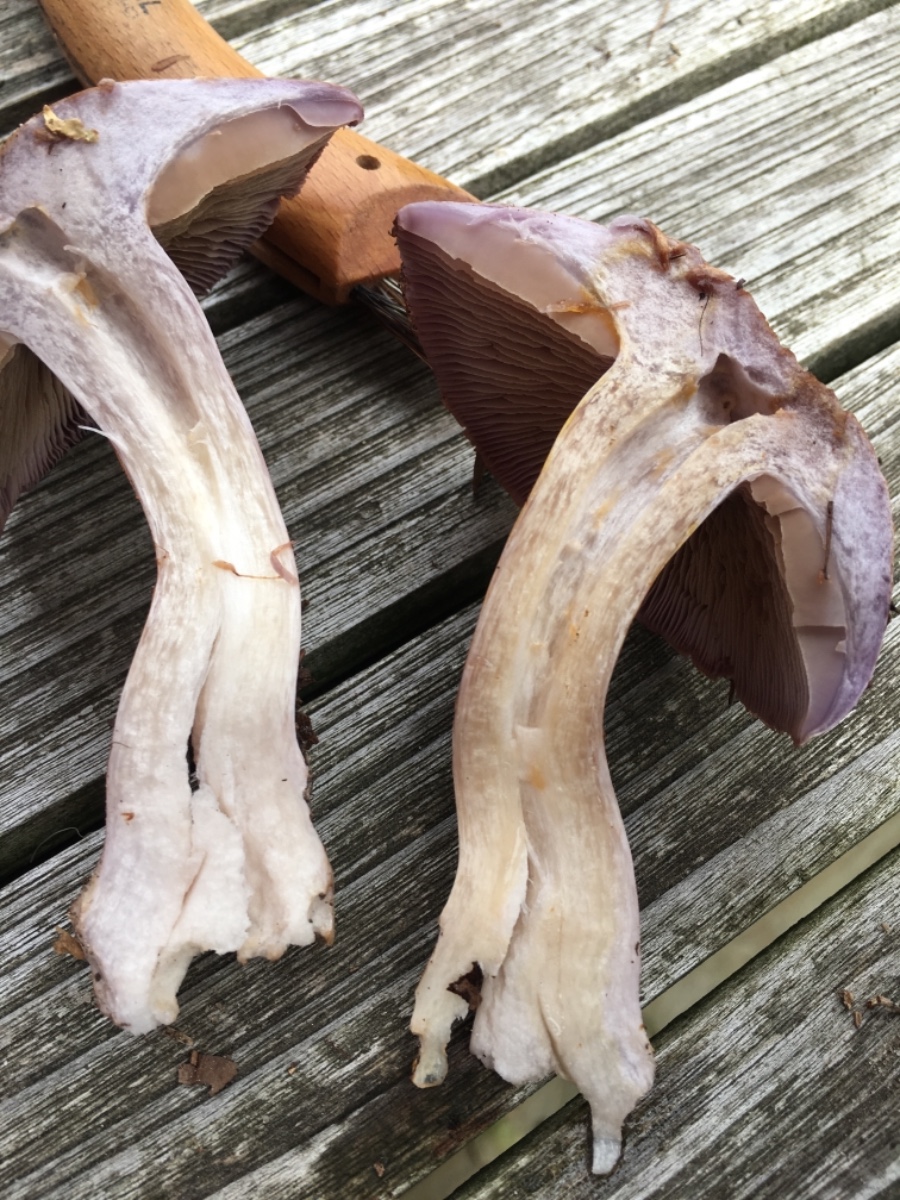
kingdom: Fungi
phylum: Basidiomycota
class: Agaricomycetes
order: Agaricales
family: Cortinariaceae
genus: Cortinarius
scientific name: Cortinarius largus
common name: violetrandet slørhat
